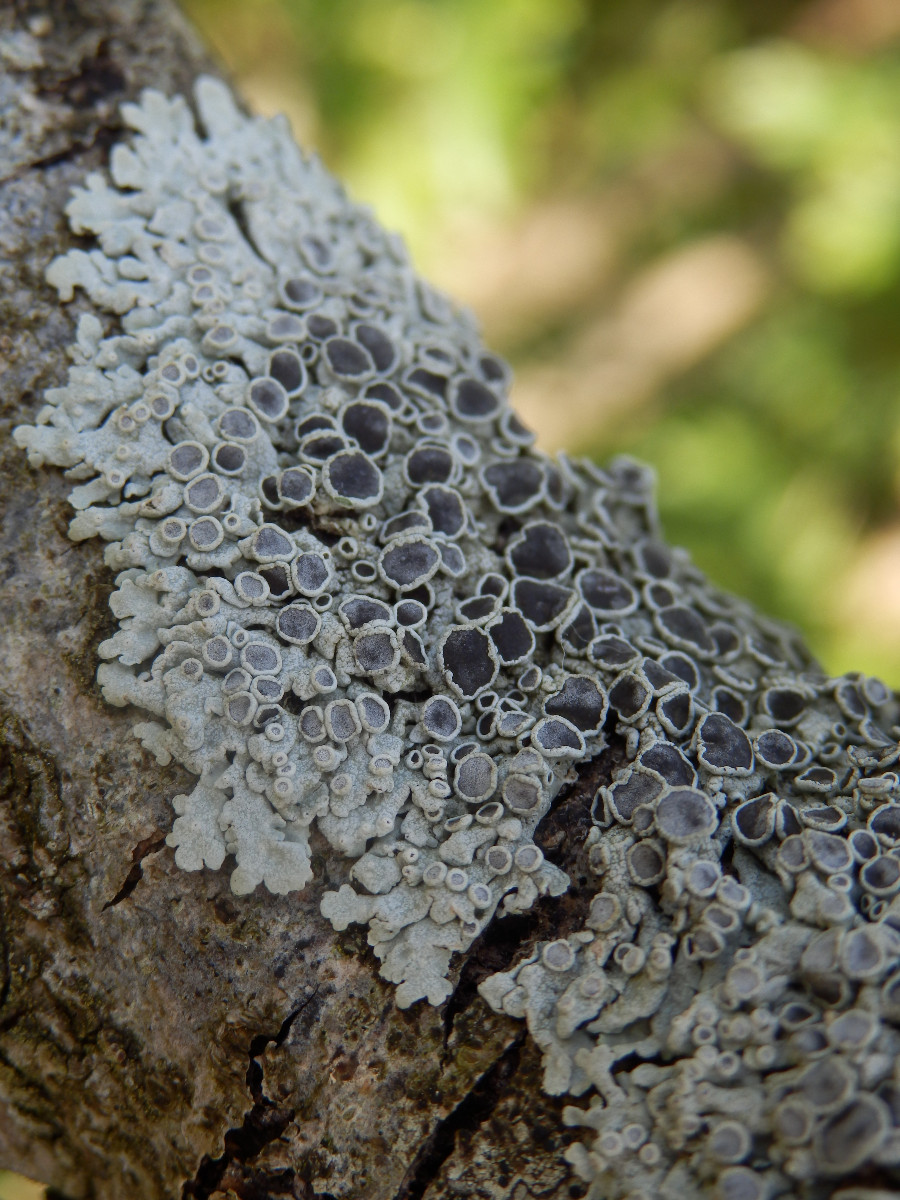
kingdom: Fungi
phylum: Ascomycota
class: Lecanoromycetes
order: Caliciales
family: Physciaceae
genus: Physcia
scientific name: Physcia aipolia
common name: hvidprikket rosetlav
